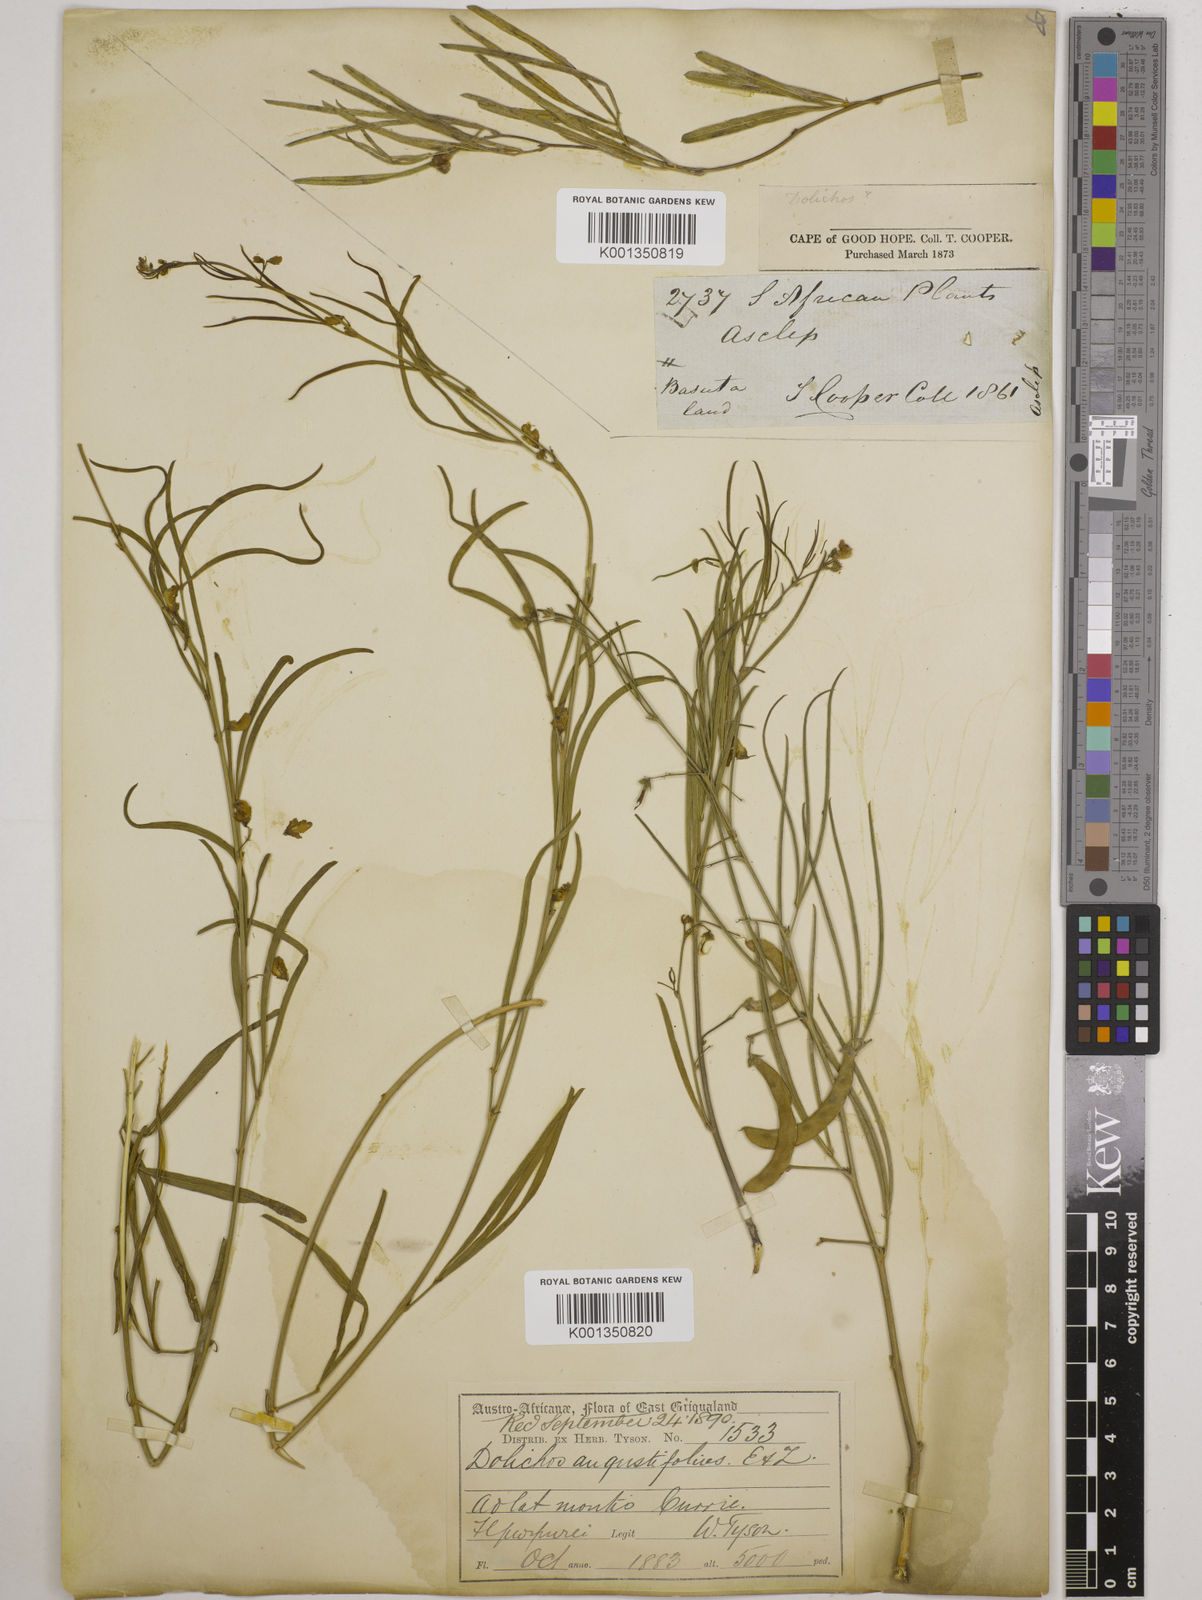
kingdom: Plantae
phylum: Tracheophyta
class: Magnoliopsida
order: Fabales
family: Fabaceae
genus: Dolichos
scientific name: Dolichos
